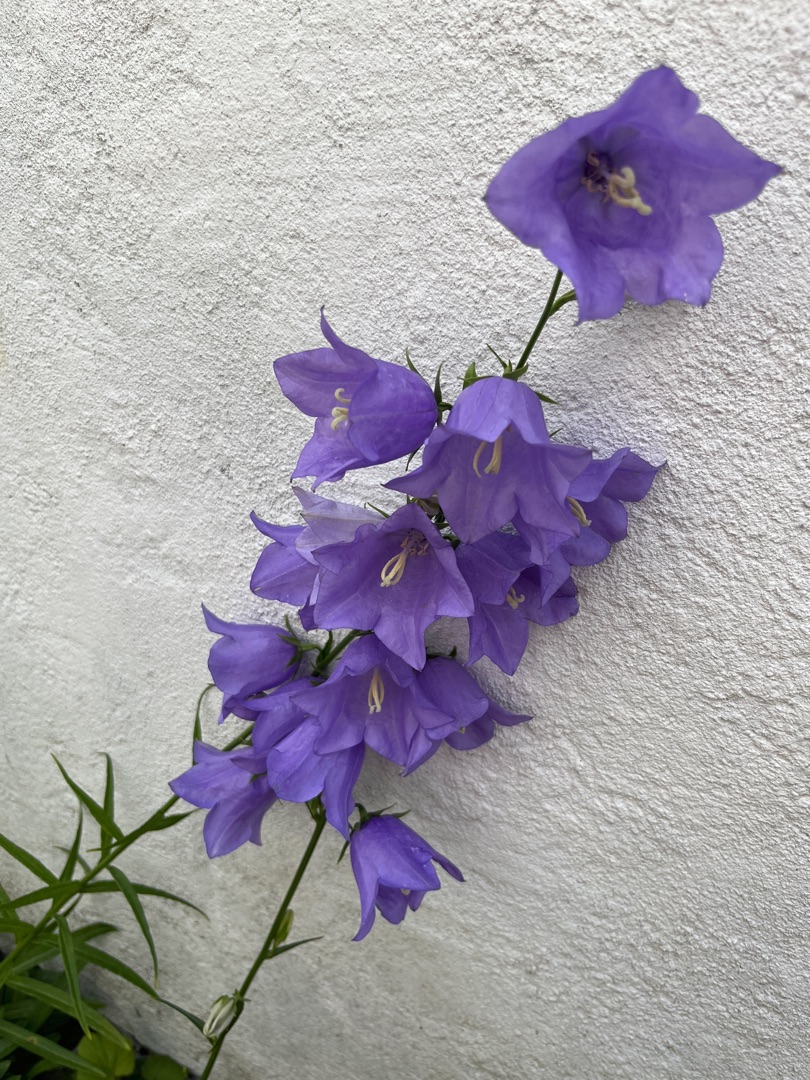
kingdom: Plantae
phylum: Tracheophyta
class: Magnoliopsida
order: Asterales
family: Campanulaceae
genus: Campanula
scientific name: Campanula persicifolia
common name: Smalbladet klokke
